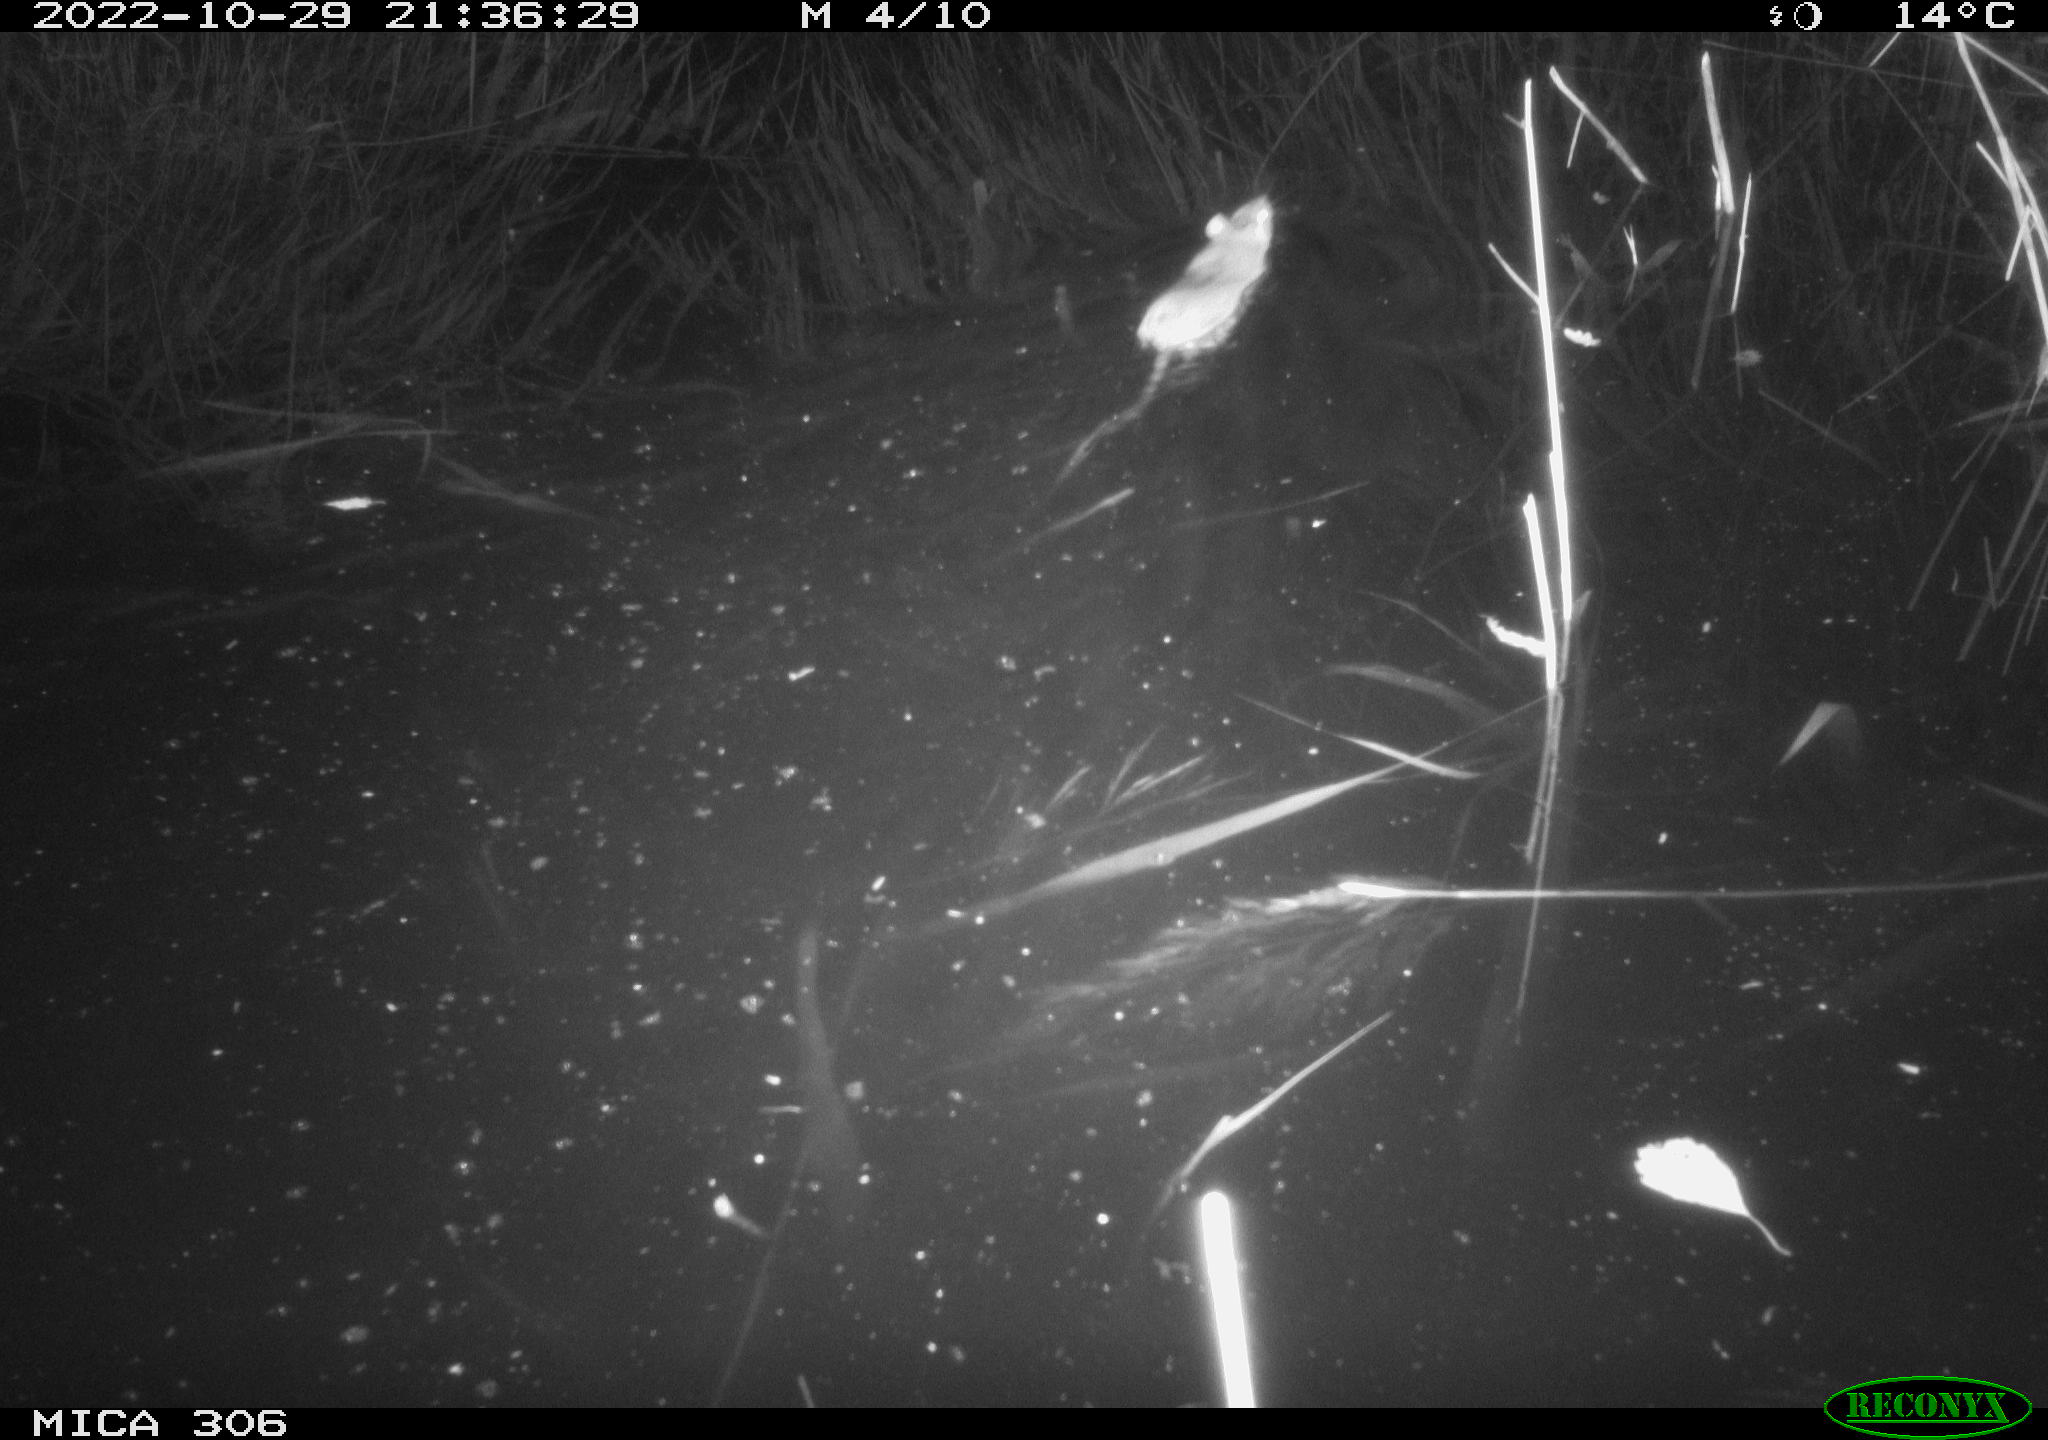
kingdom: Animalia
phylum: Chordata
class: Mammalia
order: Rodentia
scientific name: Rodentia
